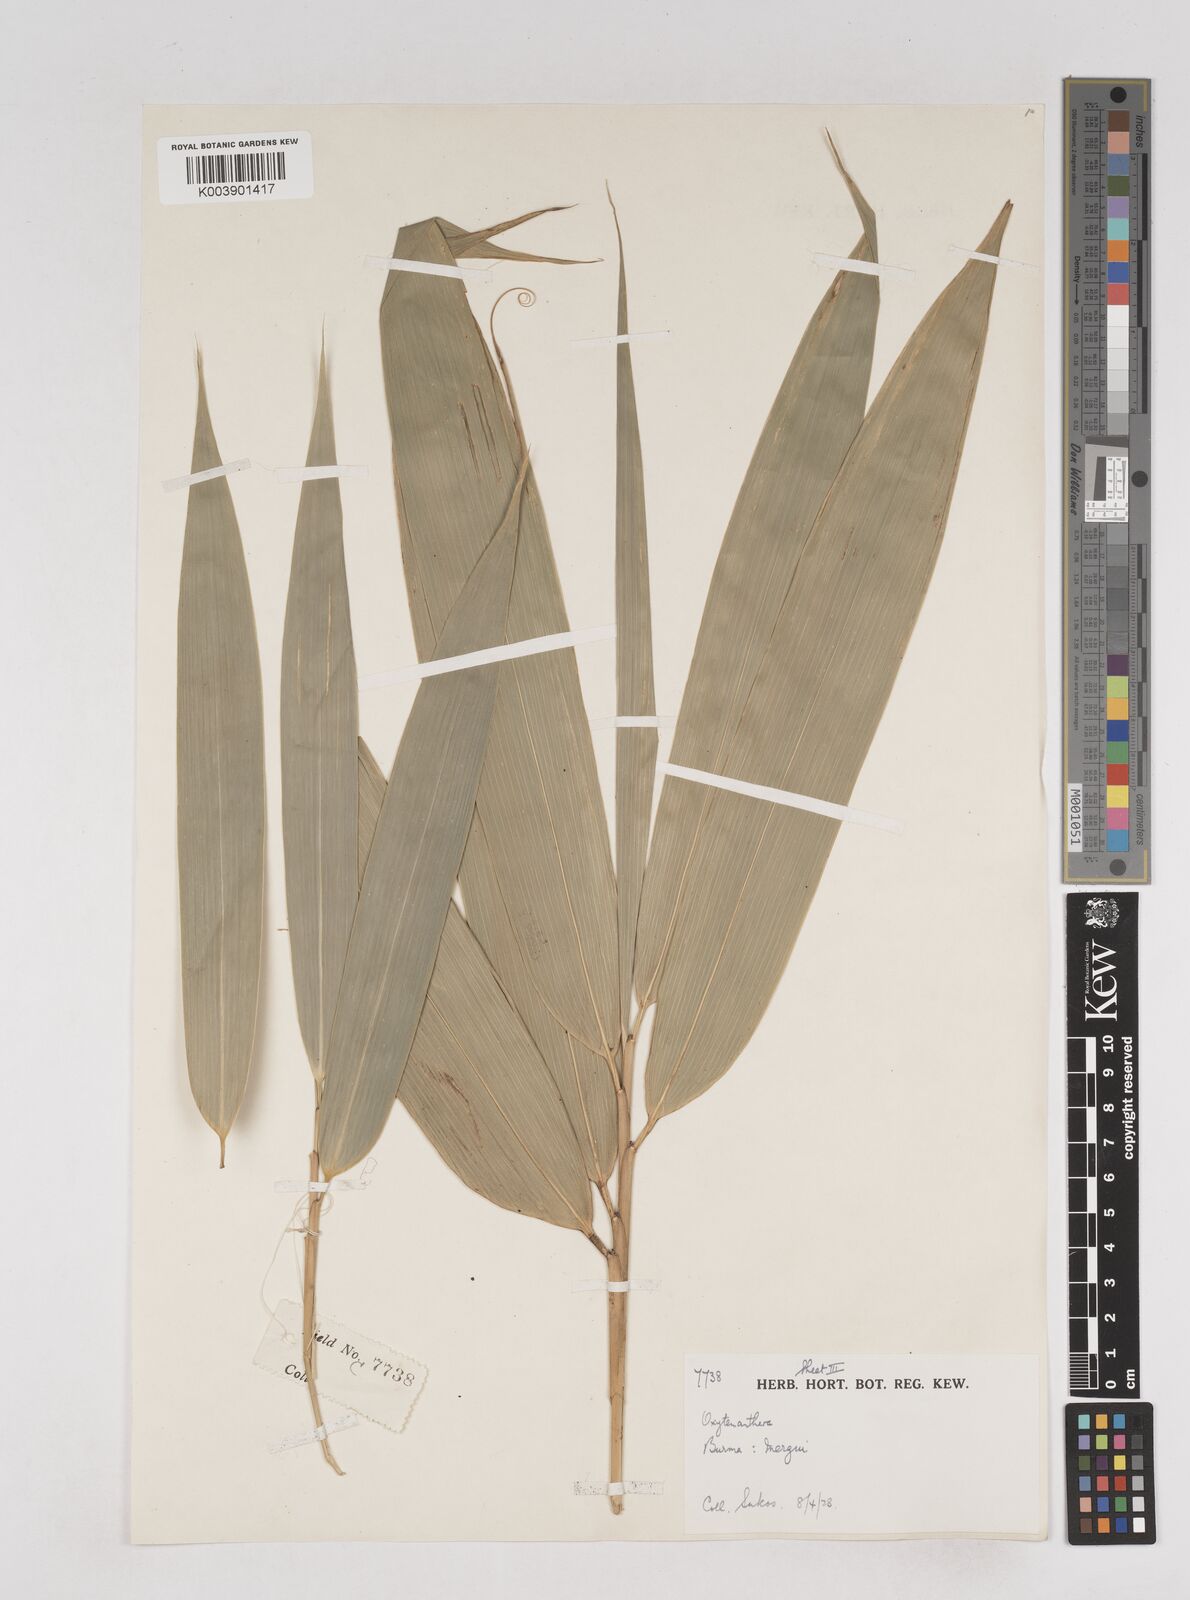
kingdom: Plantae
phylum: Tracheophyta
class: Liliopsida
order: Poales
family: Poaceae
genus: Schizostachyum
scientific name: Schizostachyum
